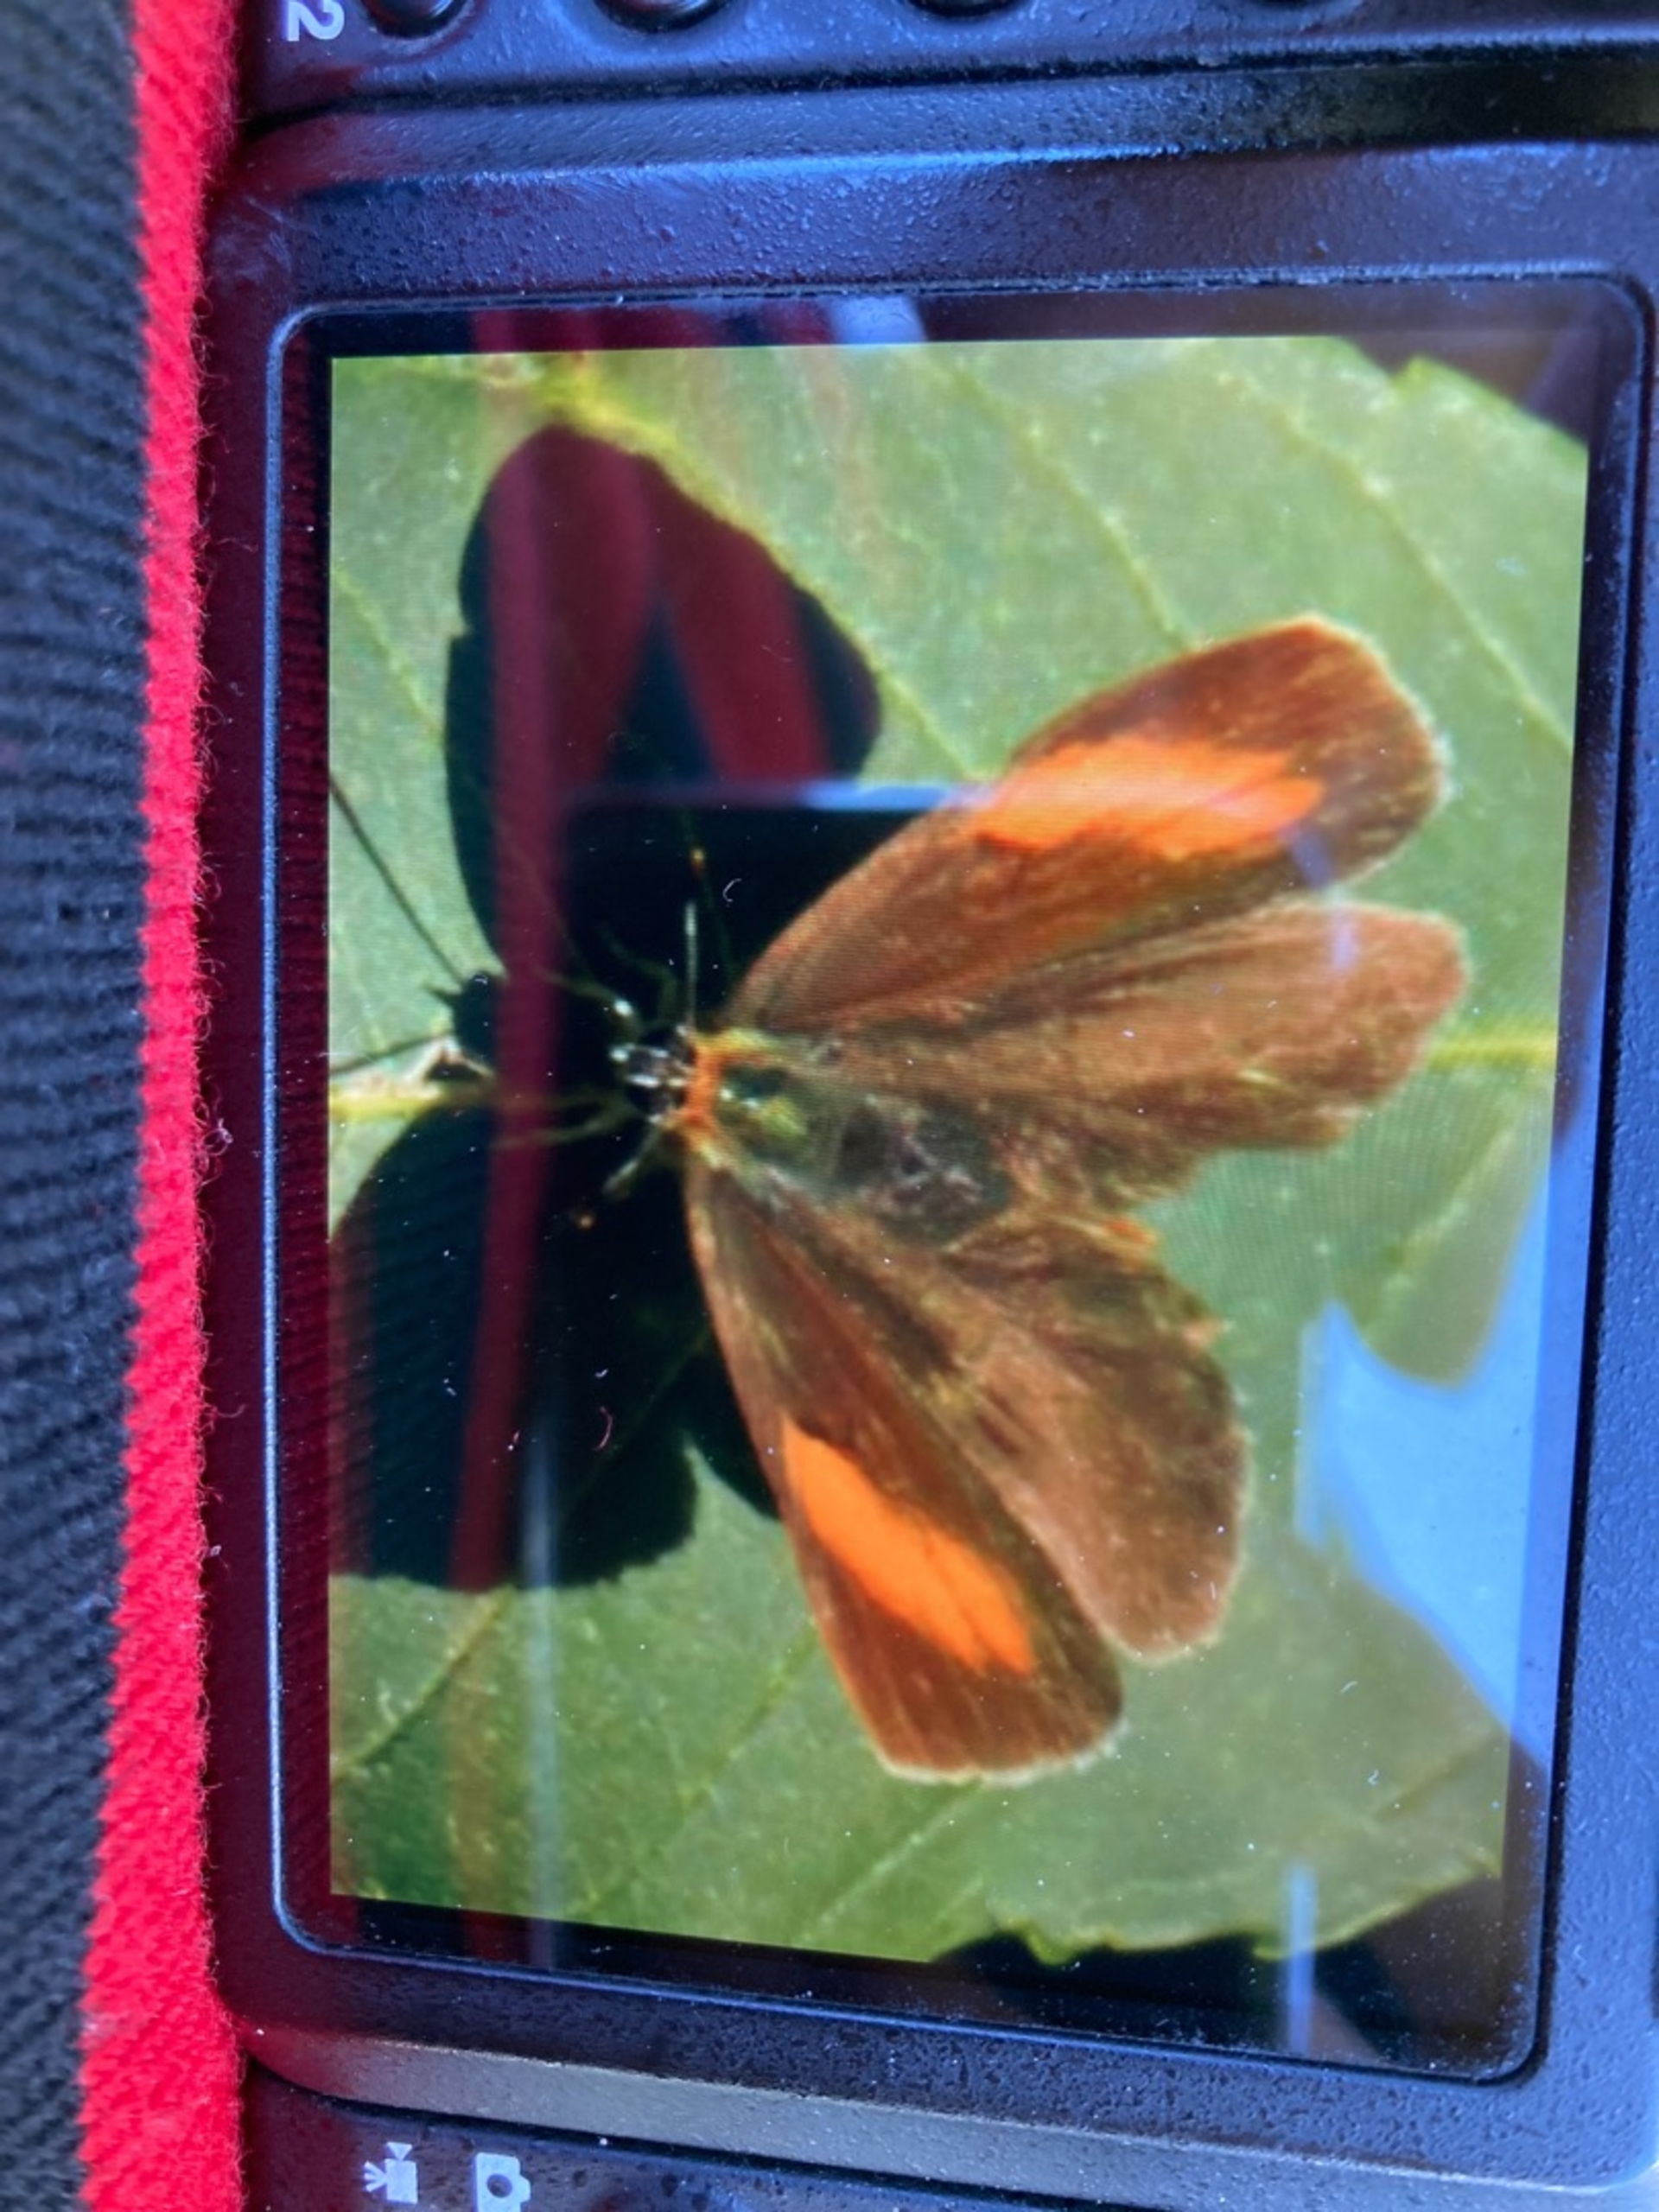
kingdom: Animalia
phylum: Arthropoda
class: Insecta
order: Lepidoptera
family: Lycaenidae
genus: Thecla
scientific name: Thecla betulae
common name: Guldhale
